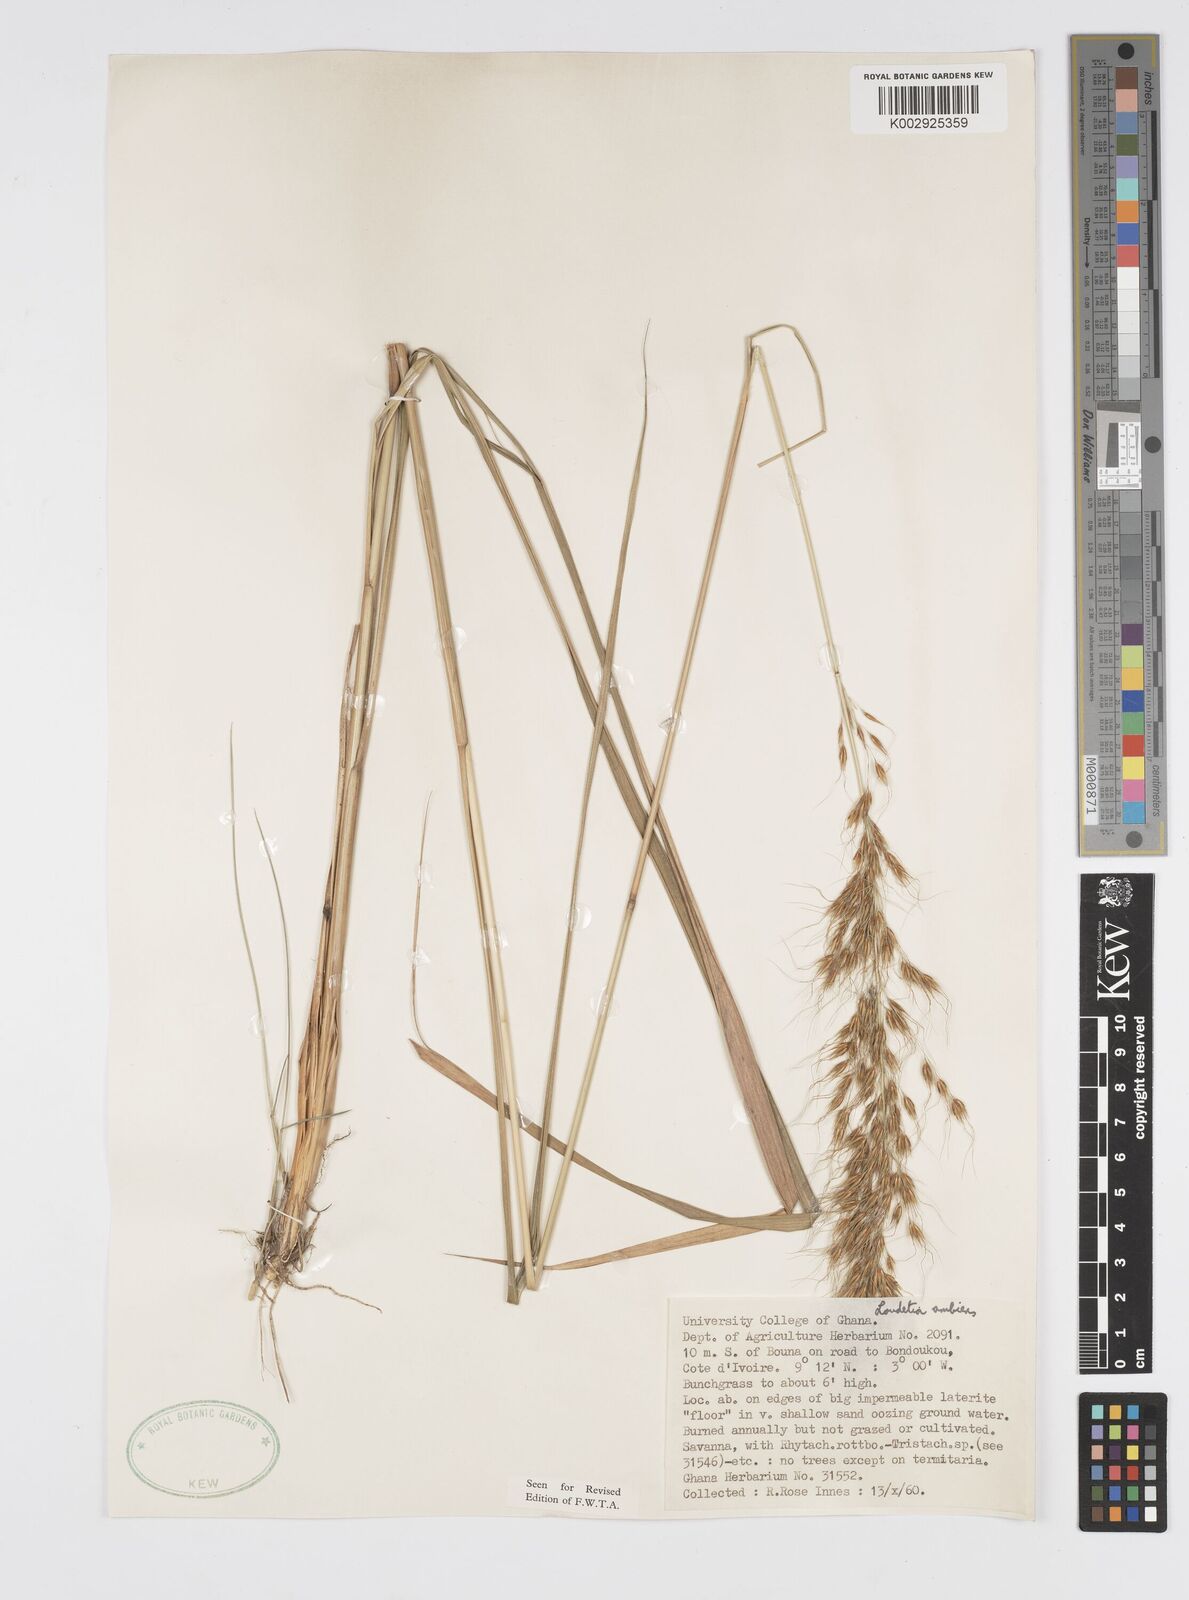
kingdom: Plantae
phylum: Tracheophyta
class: Liliopsida
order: Poales
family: Poaceae
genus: Loudetiopsis
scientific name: Loudetiopsis ambiens
